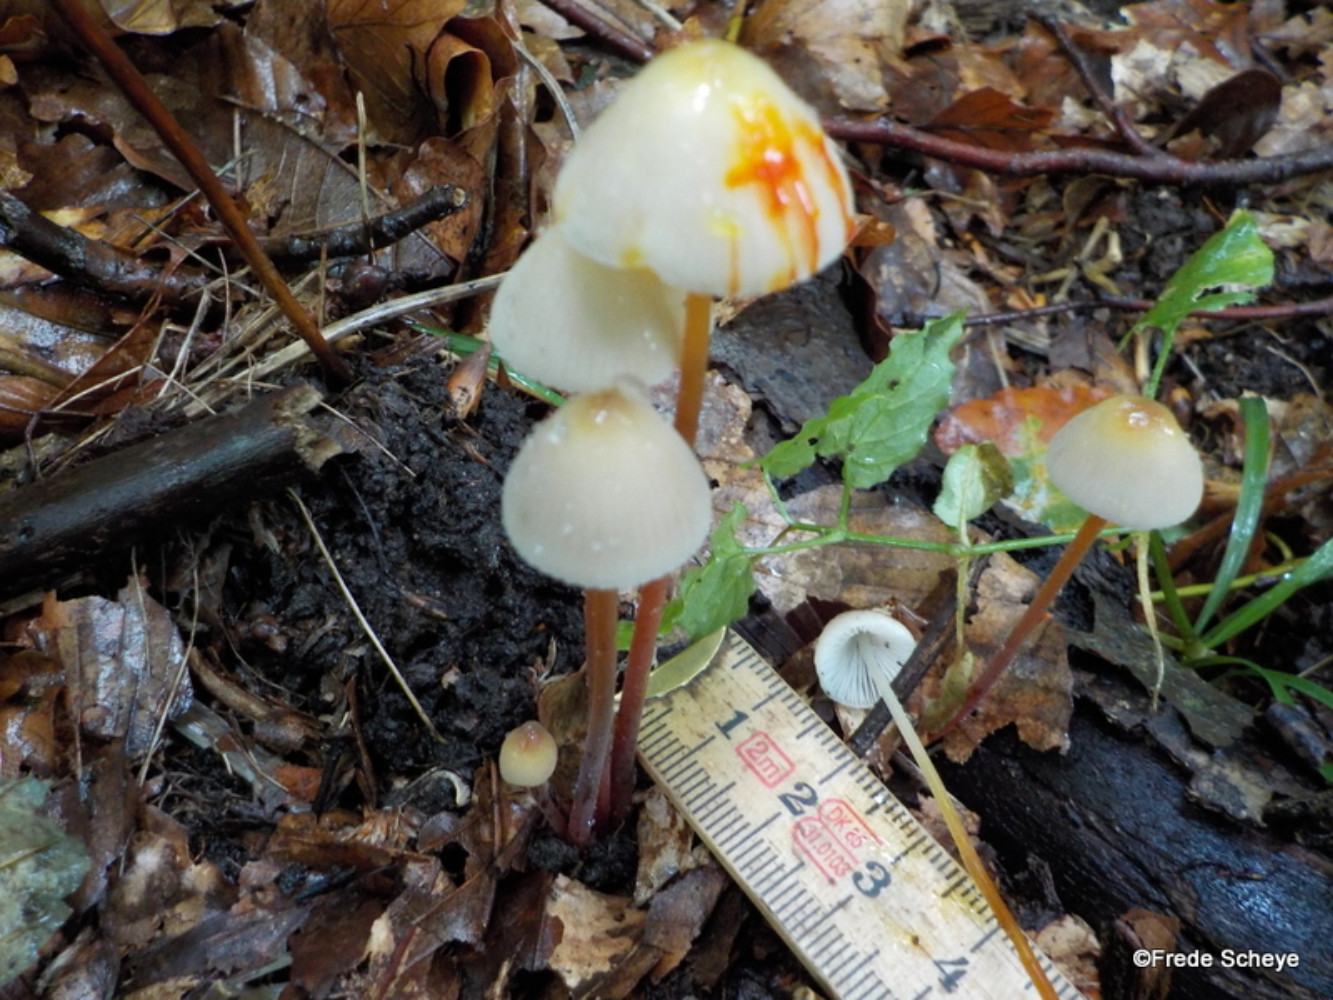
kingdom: Fungi
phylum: Basidiomycota
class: Agaricomycetes
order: Agaricales
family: Mycenaceae
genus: Mycena
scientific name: Mycena crocata
